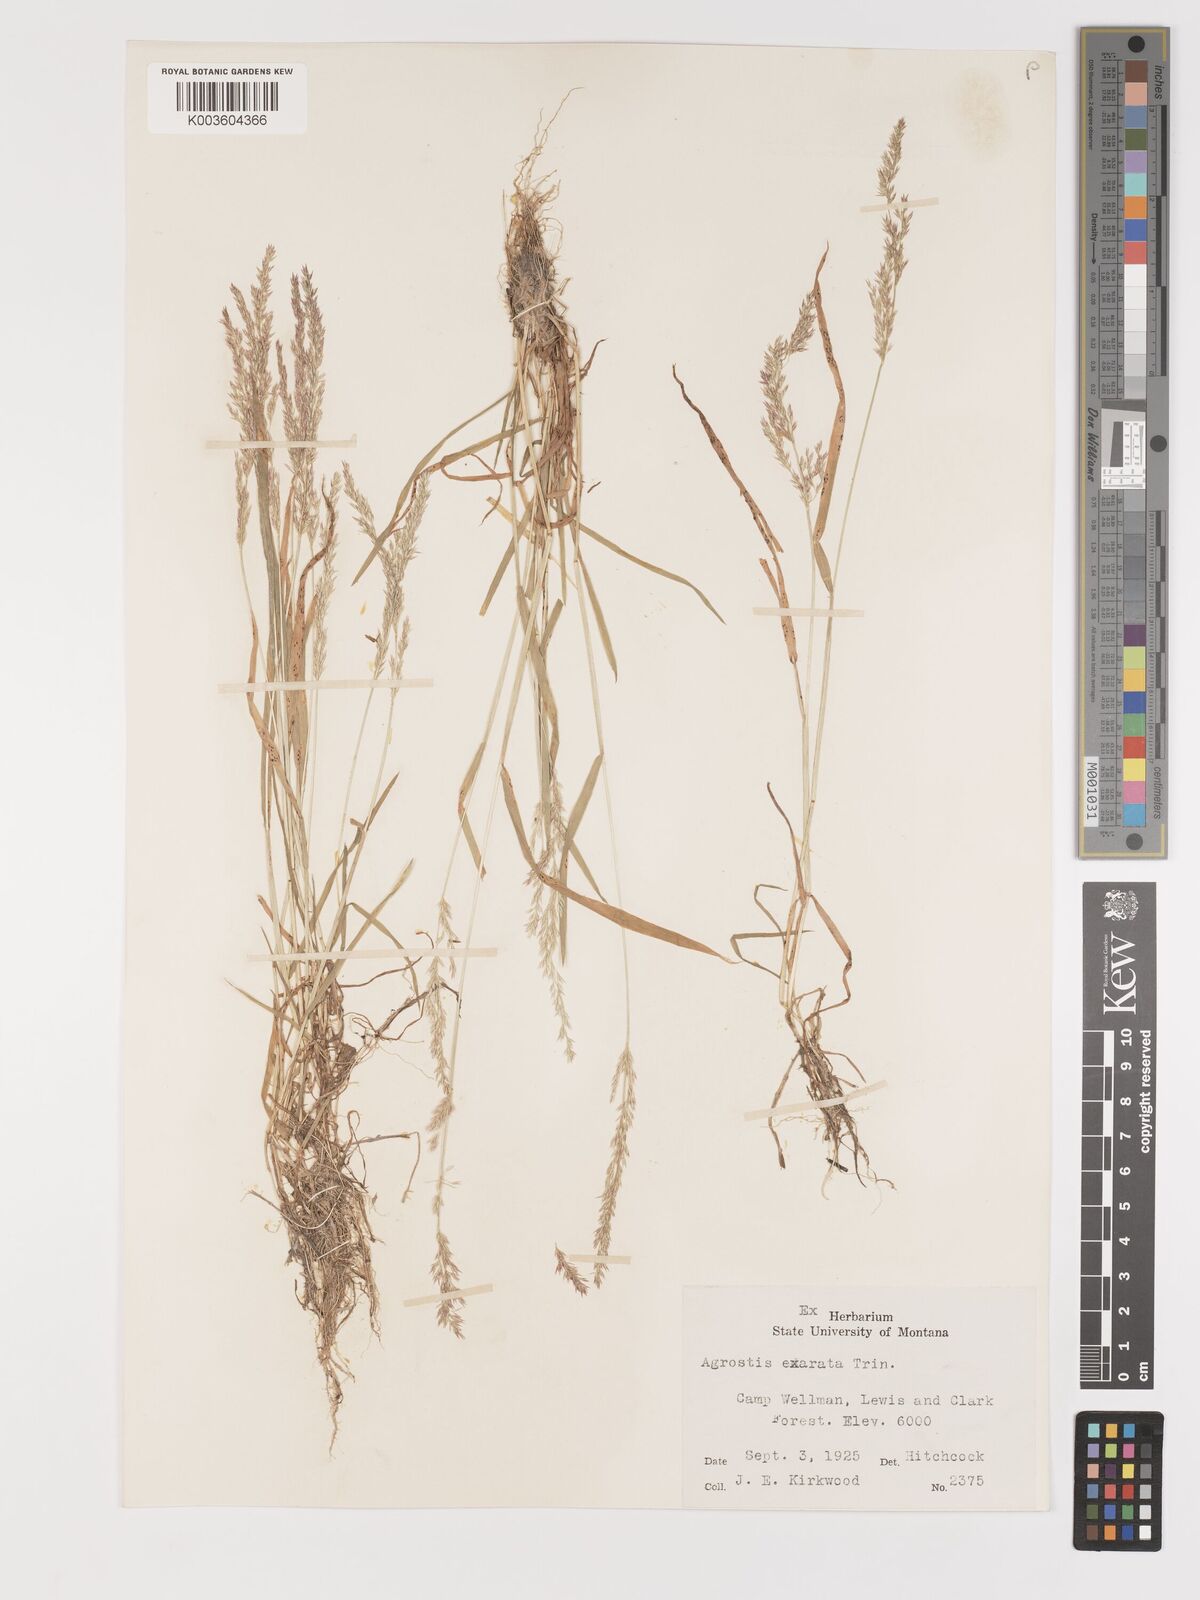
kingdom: Plantae
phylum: Tracheophyta
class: Liliopsida
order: Poales
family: Poaceae
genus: Agrostis
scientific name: Agrostis exarata
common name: Spike bent
